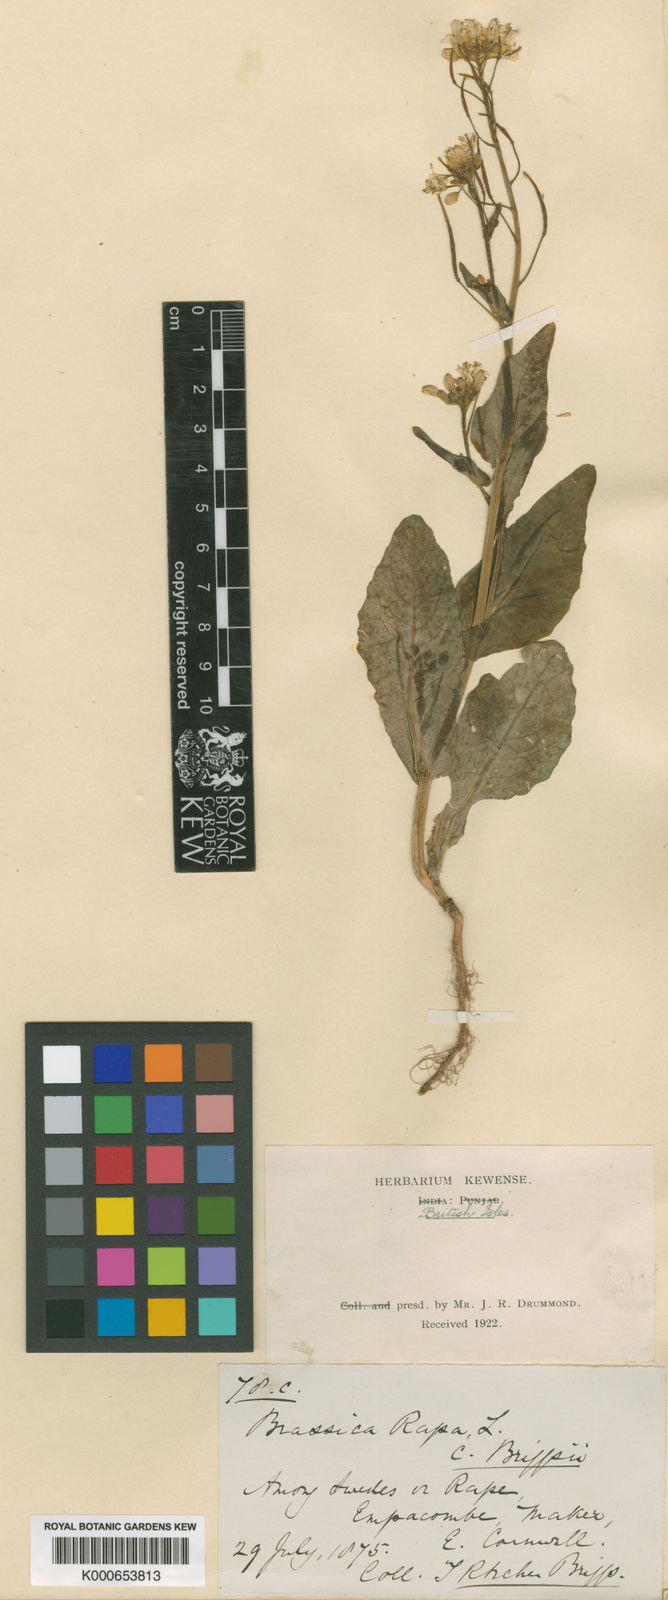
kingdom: Plantae
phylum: Tracheophyta
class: Magnoliopsida
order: Brassicales
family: Brassicaceae
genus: Brassica
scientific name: Brassica rapa
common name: Field mustard
